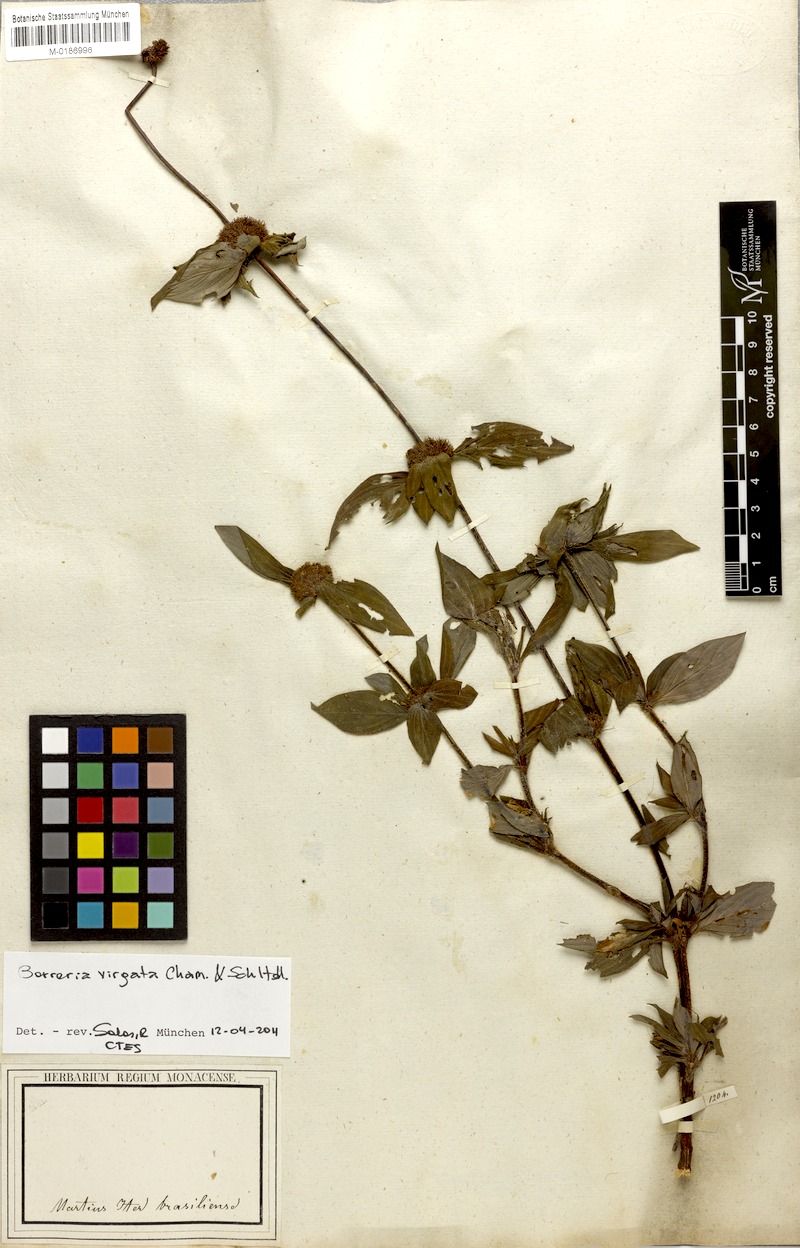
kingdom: Plantae
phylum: Tracheophyta
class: Magnoliopsida
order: Gentianales
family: Rubiaceae
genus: Spermacoce
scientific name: Spermacoce ocymifolia
